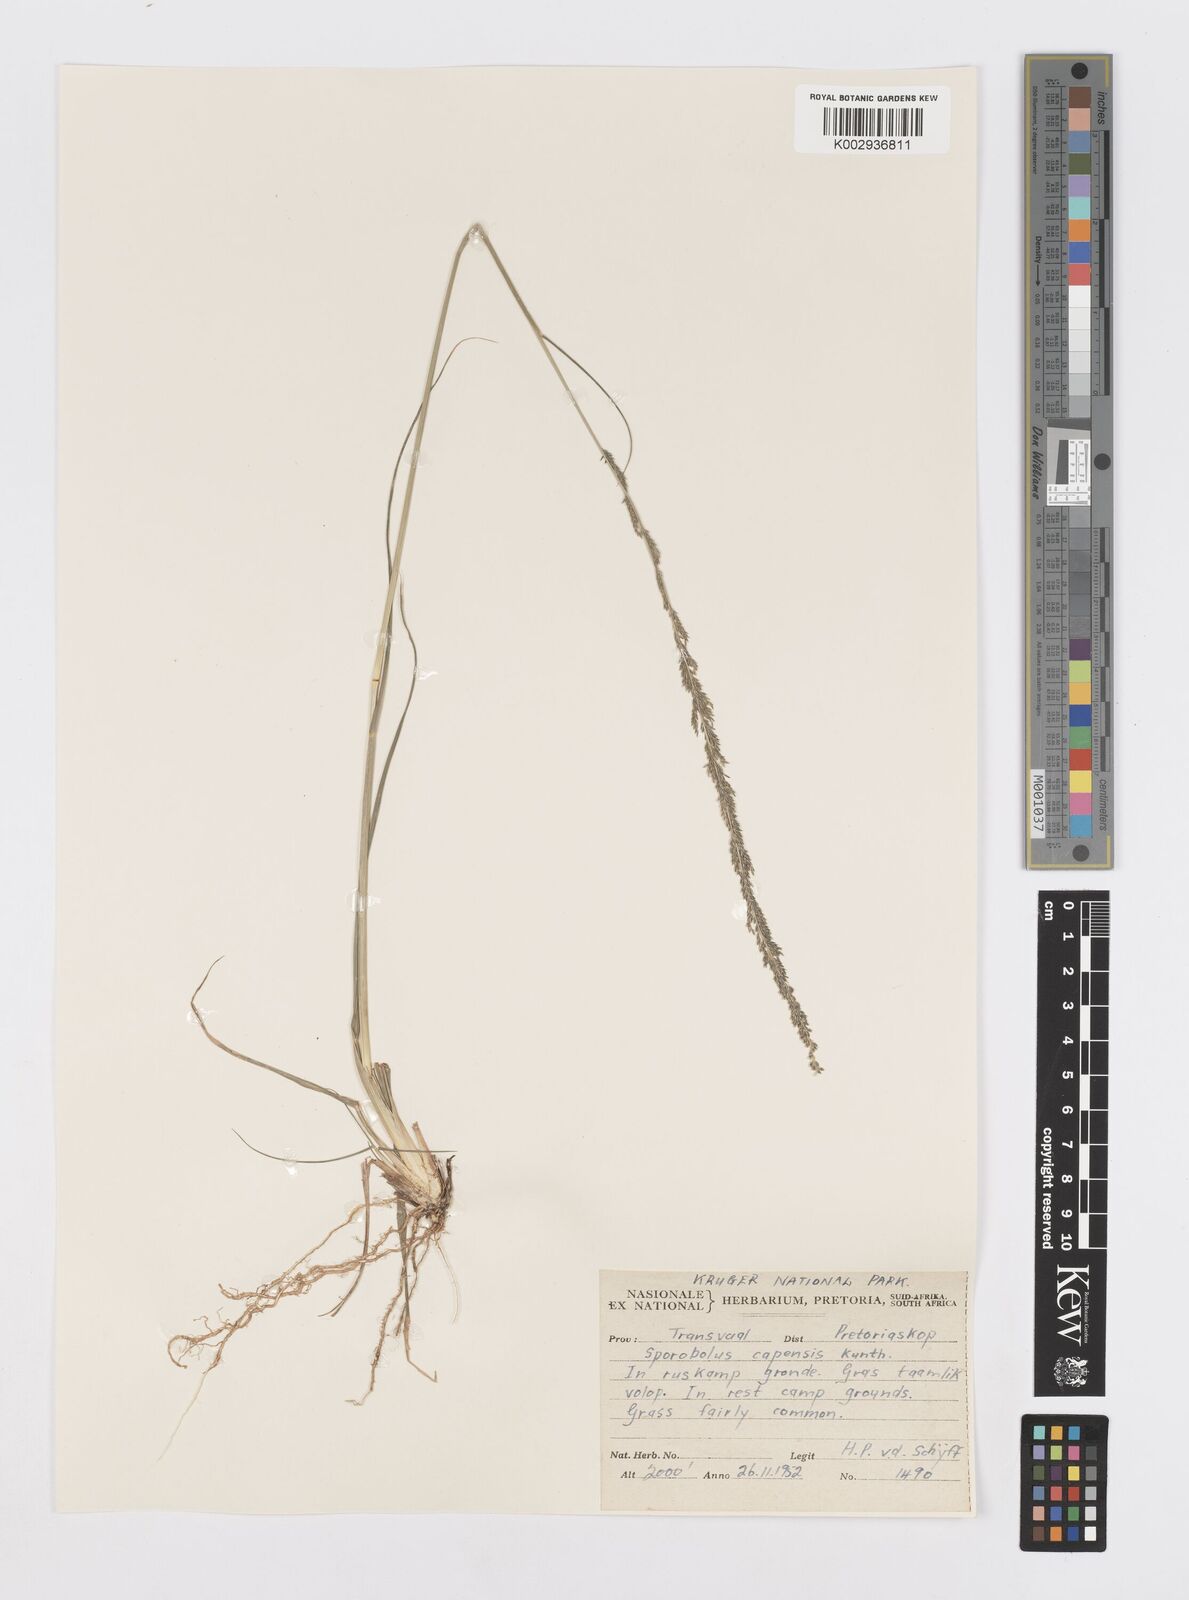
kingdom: Plantae
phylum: Tracheophyta
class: Liliopsida
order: Poales
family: Poaceae
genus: Sporobolus
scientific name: Sporobolus africanus
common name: African dropseed
